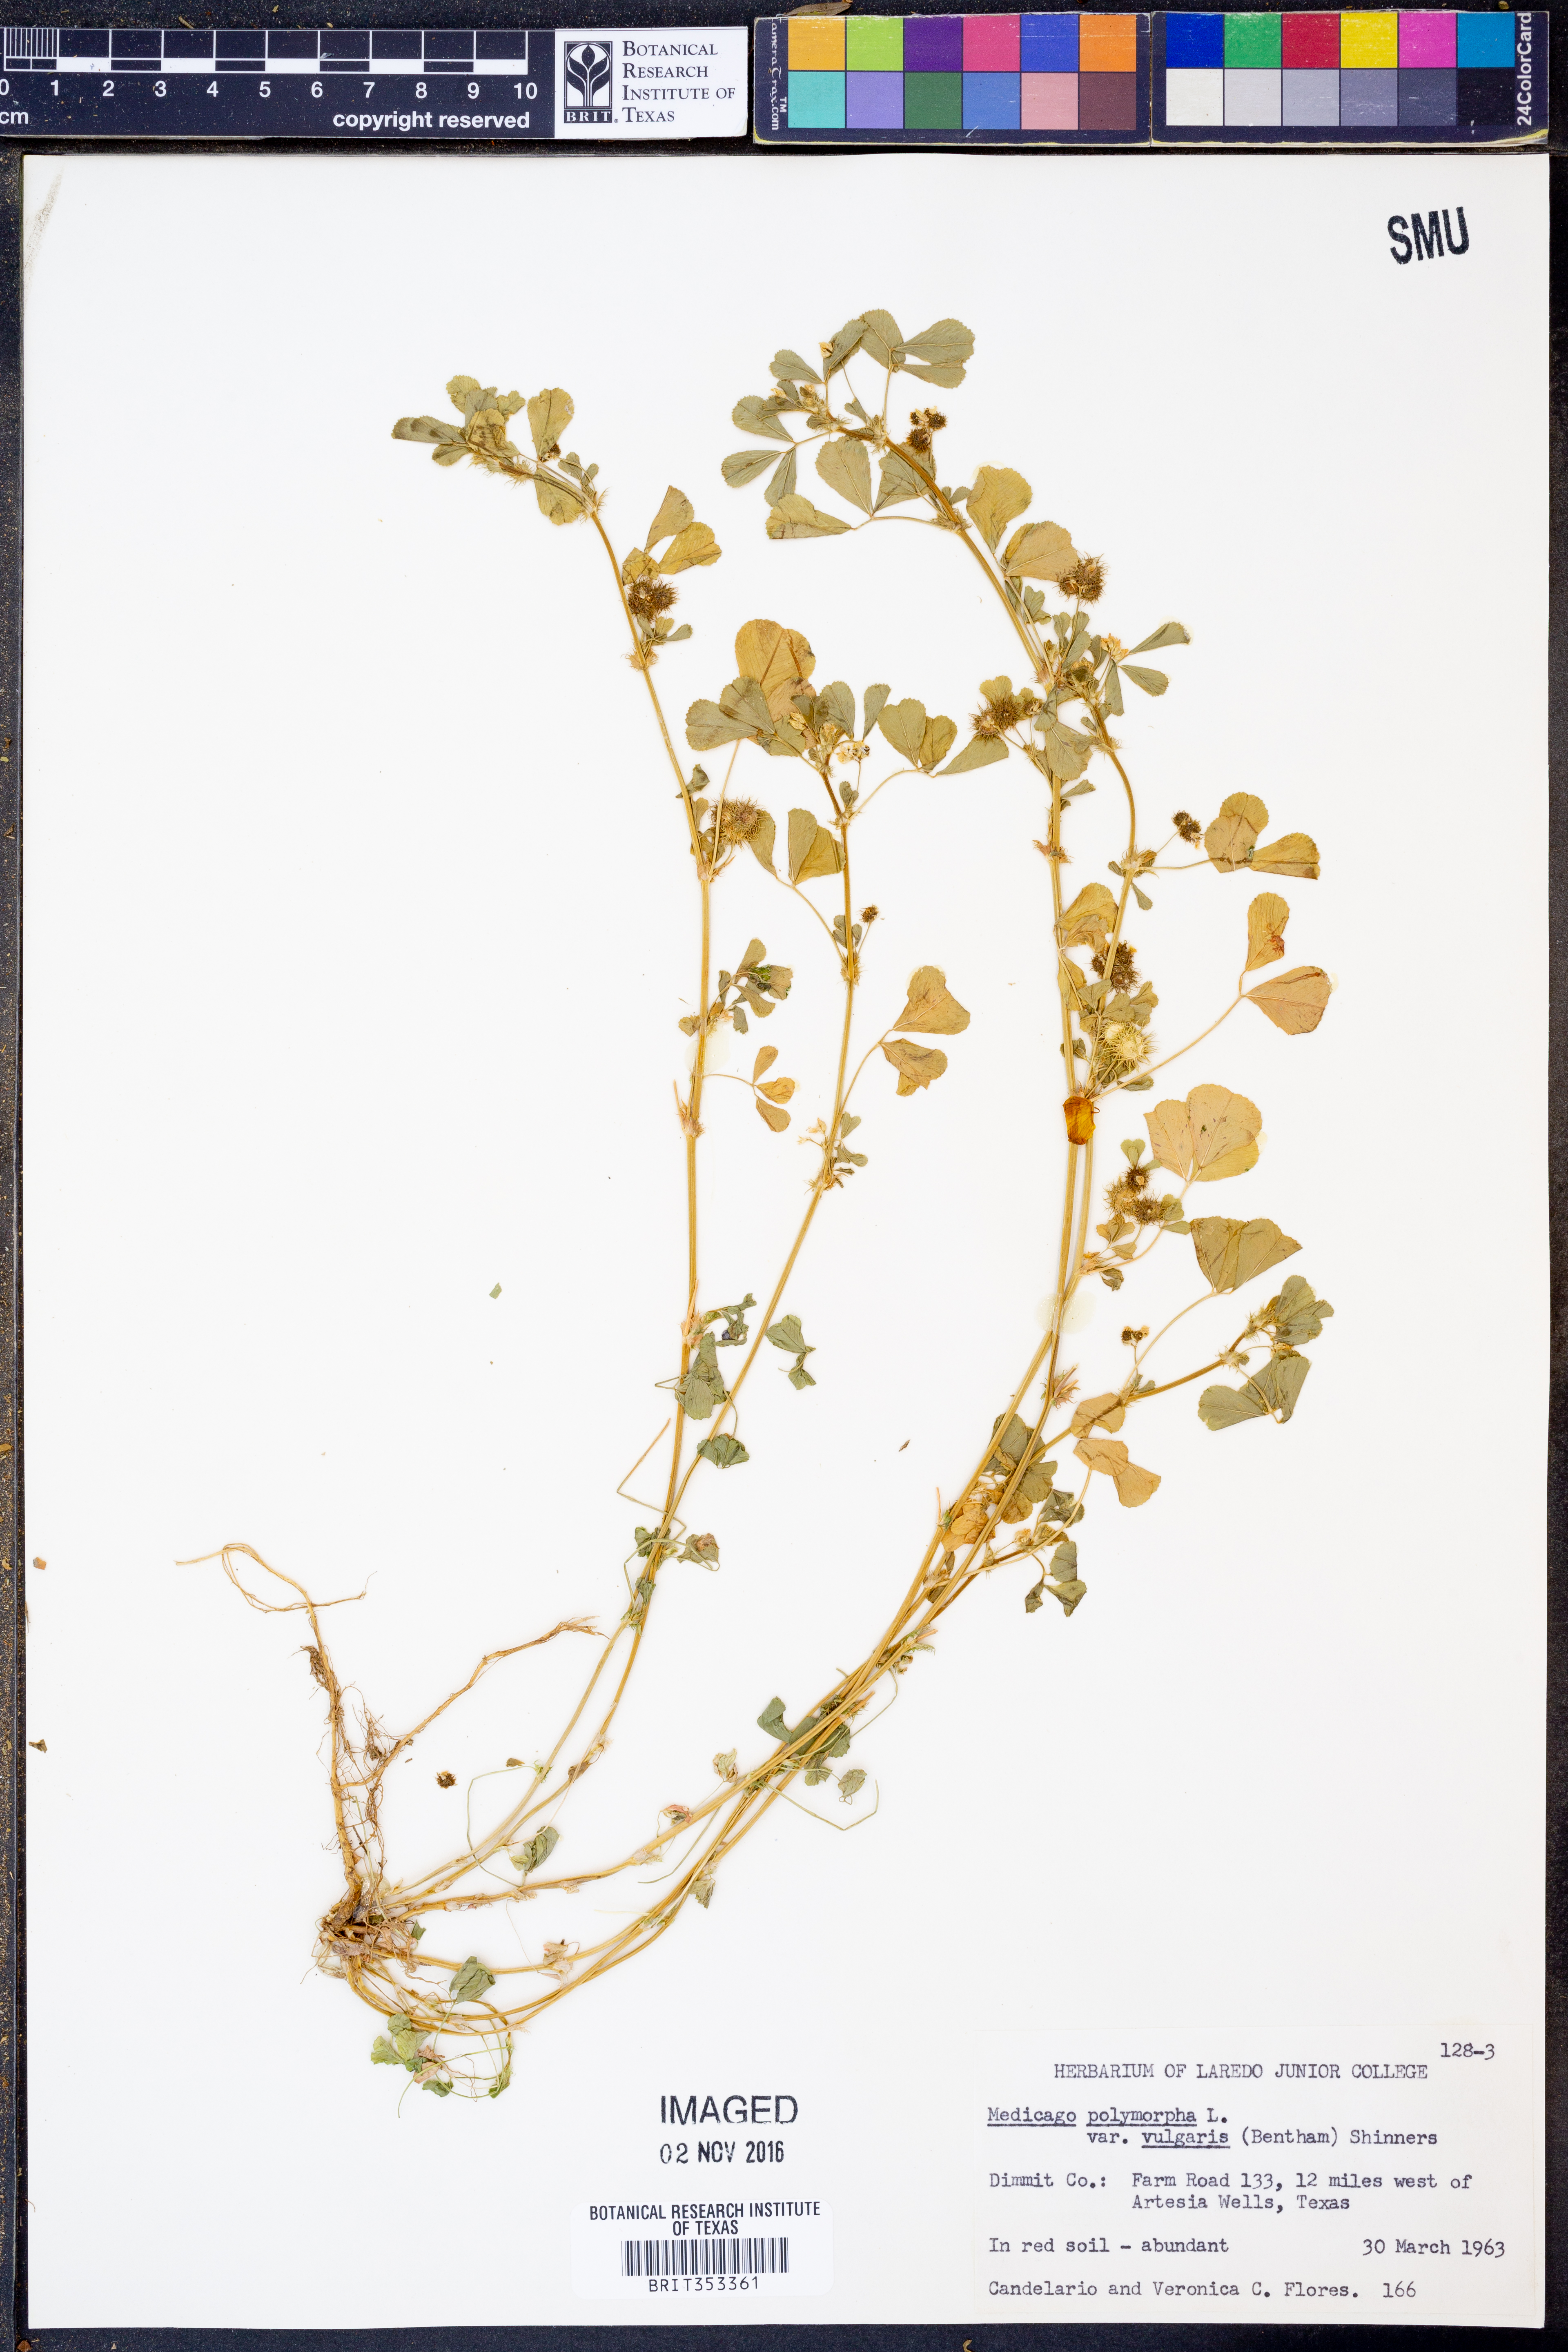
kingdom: Plantae
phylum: Tracheophyta
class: Magnoliopsida
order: Fabales
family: Fabaceae
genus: Medicago
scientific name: Medicago polymorpha
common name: Burclover
